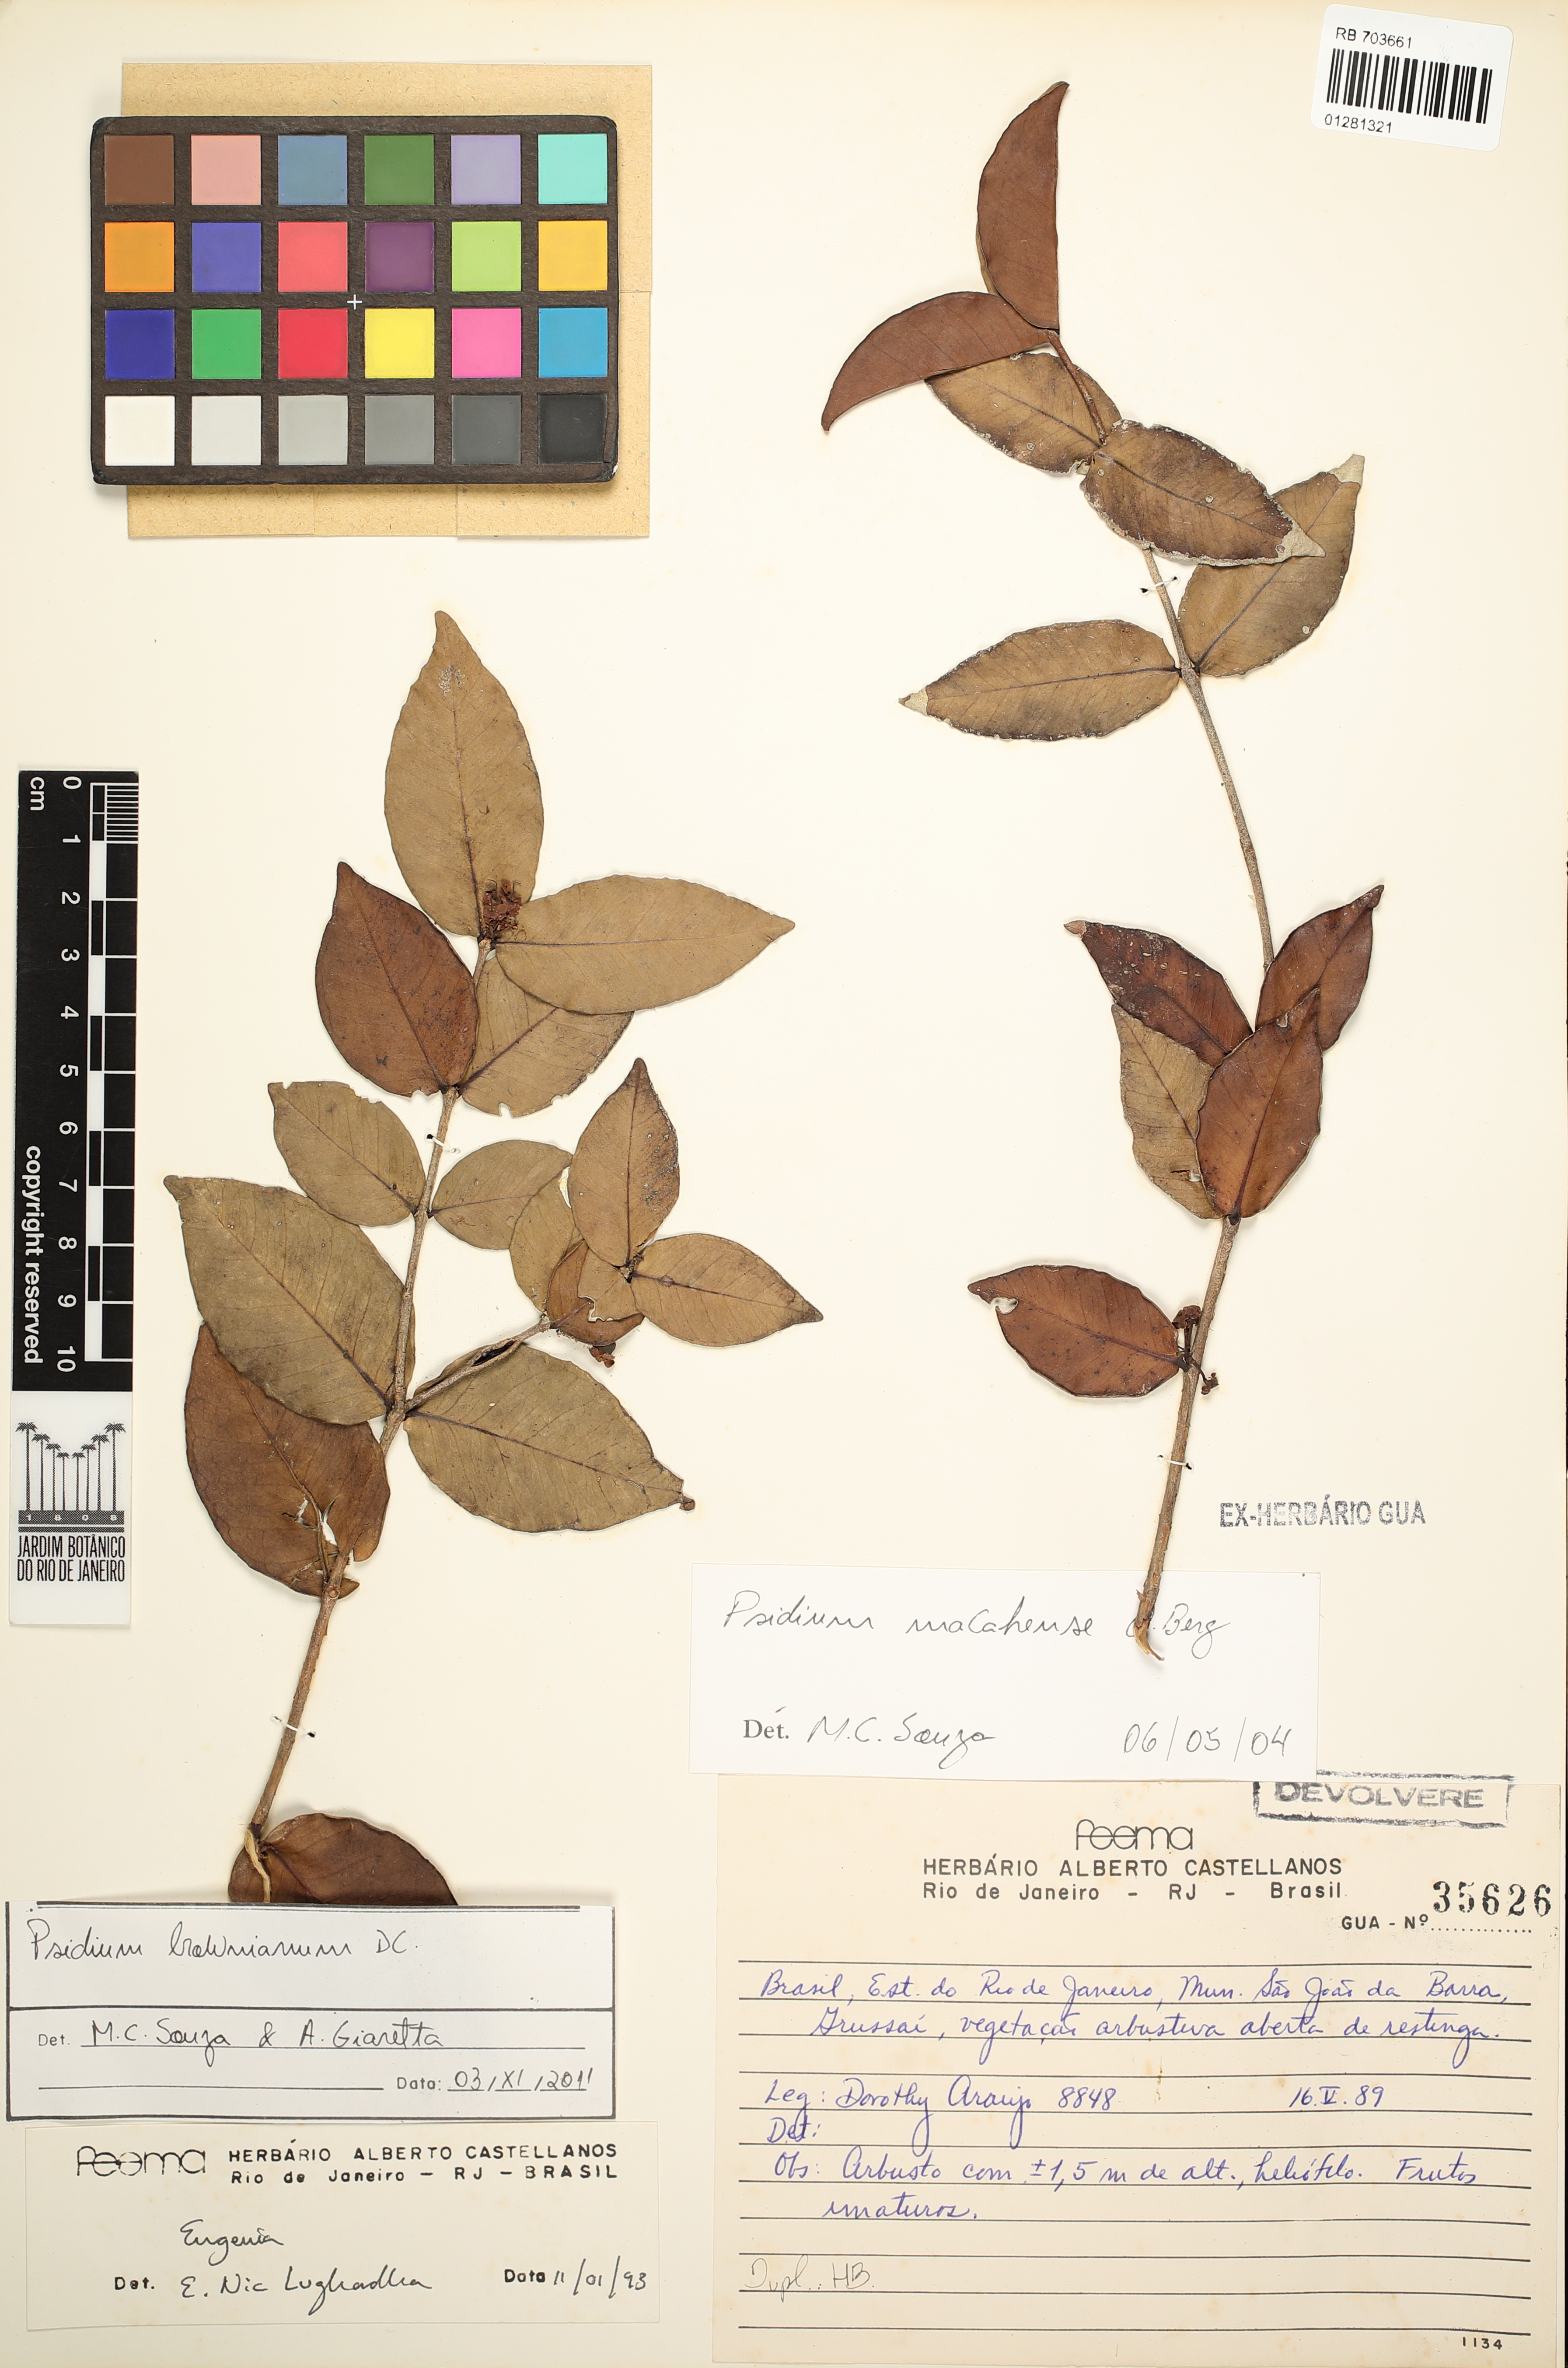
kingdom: Plantae
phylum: Tracheophyta
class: Magnoliopsida
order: Myrtales
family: Myrtaceae
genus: Psidium
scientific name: Psidium brownianum
